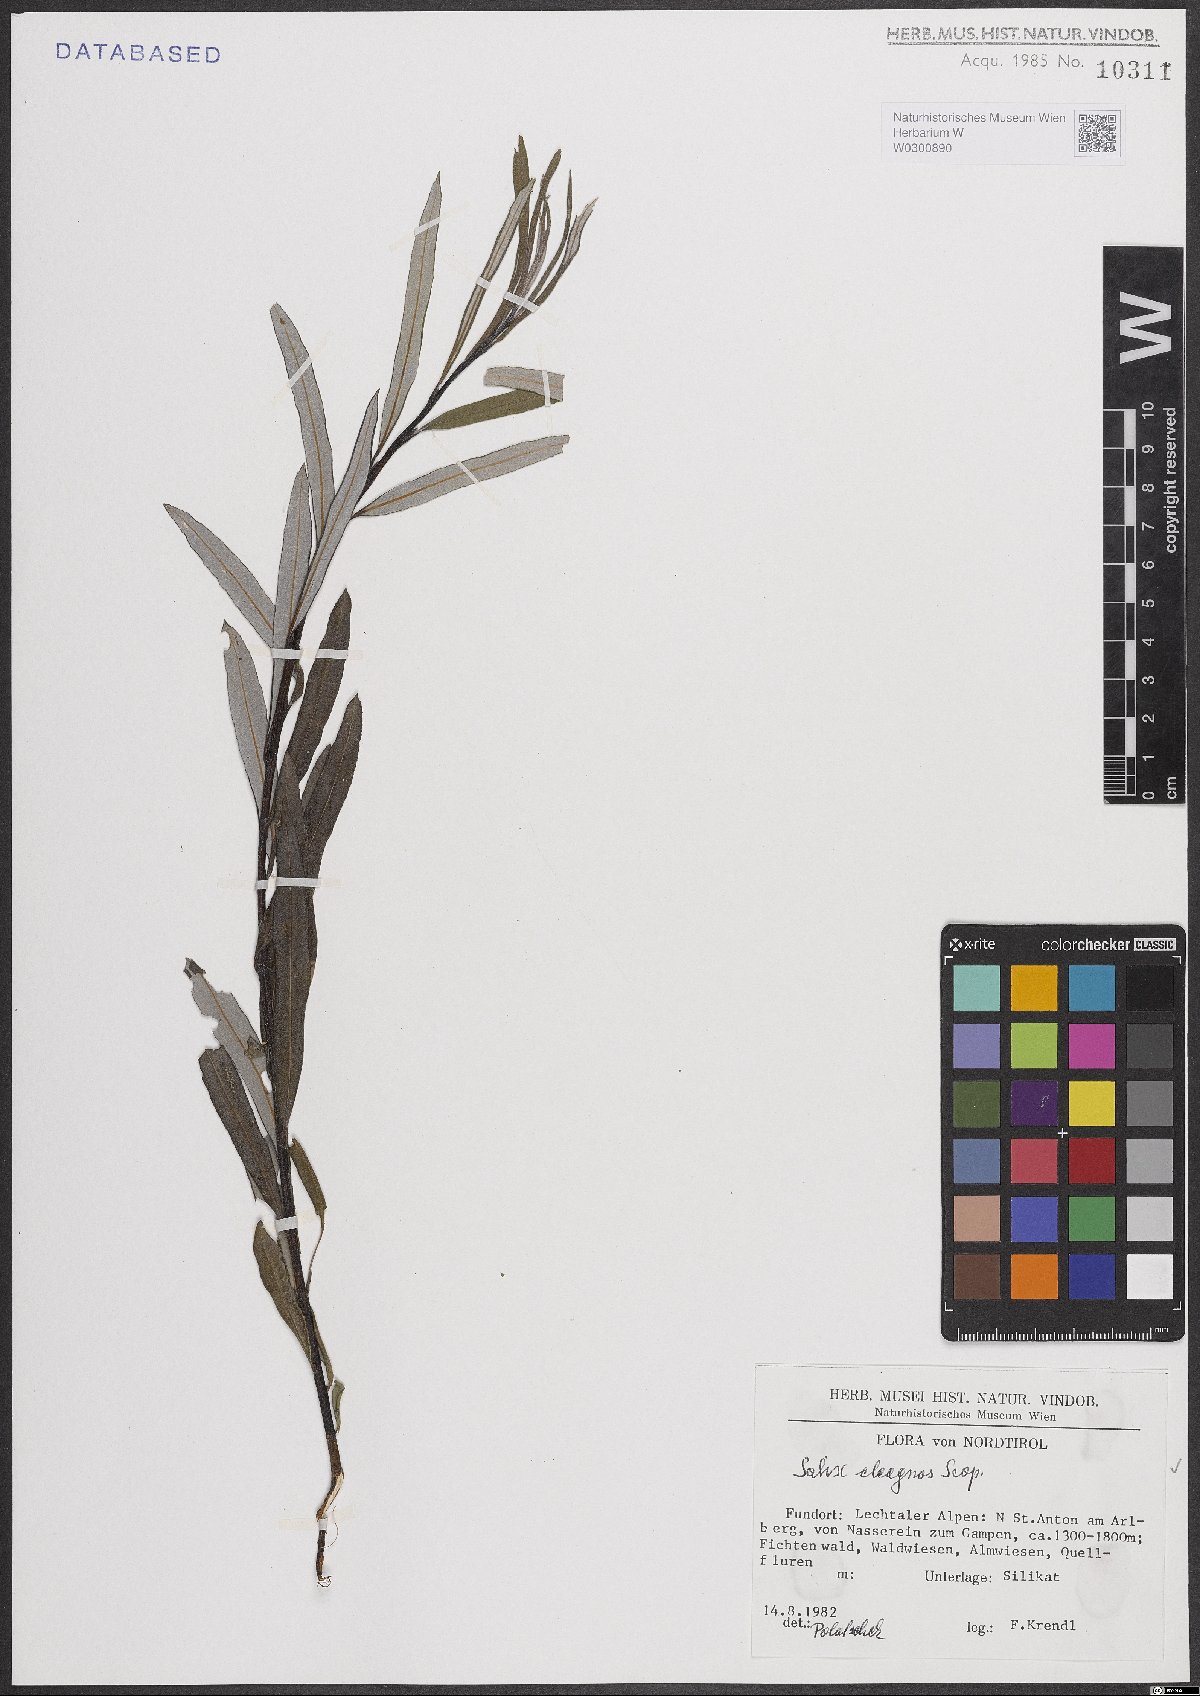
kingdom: Plantae
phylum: Tracheophyta
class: Magnoliopsida
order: Malpighiales
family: Salicaceae
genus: Salix
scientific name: Salix eleagnos
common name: Elaeagnus willow
